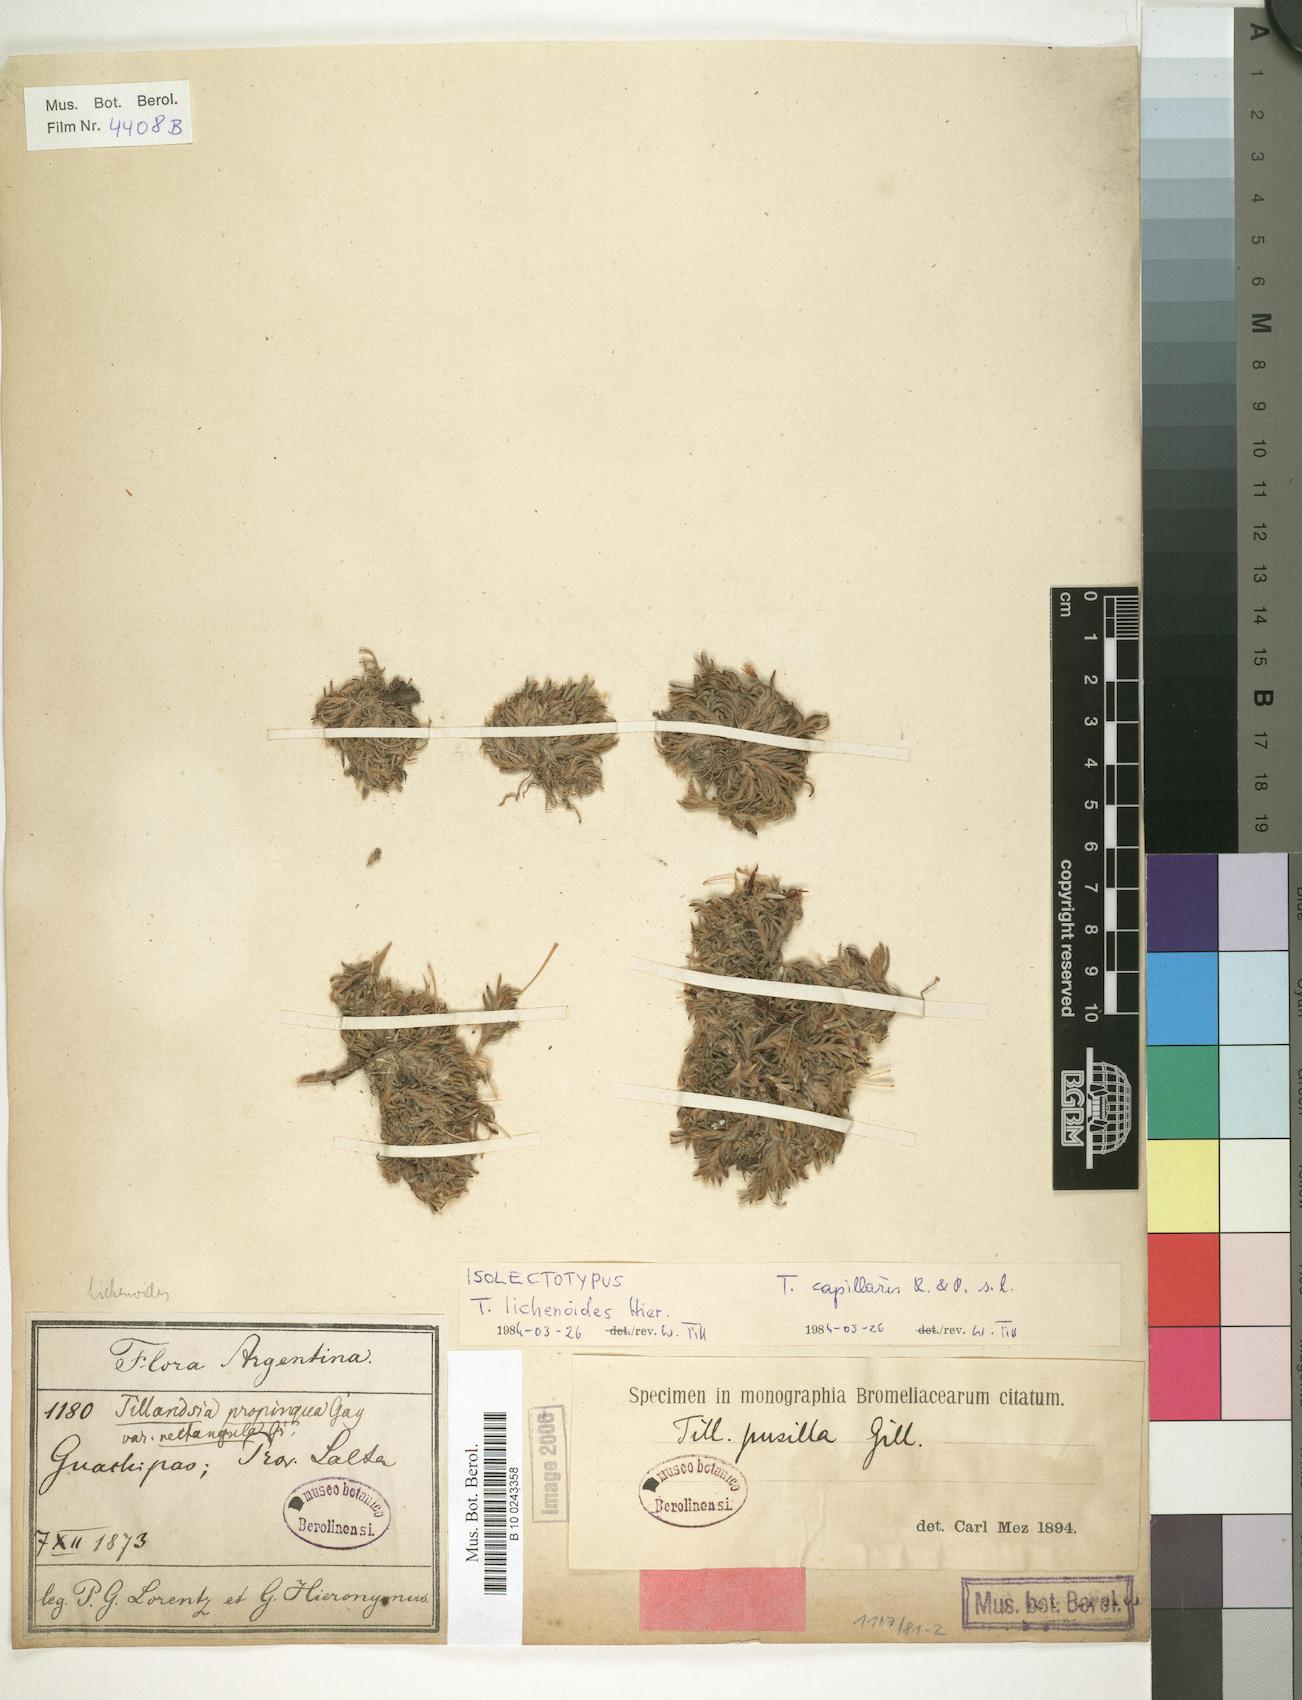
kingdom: Plantae
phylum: Tracheophyta
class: Liliopsida
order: Poales
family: Bromeliaceae
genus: Tillandsia
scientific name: Tillandsia capillaris
